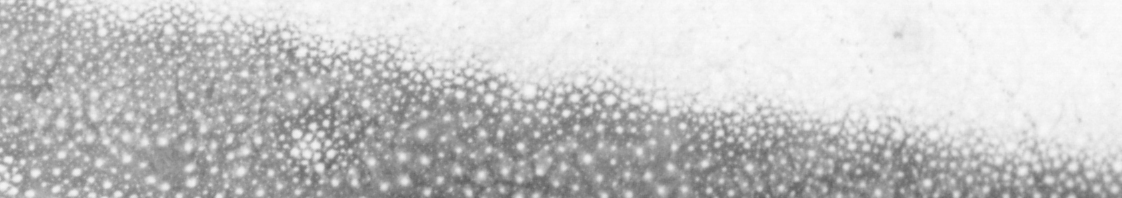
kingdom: Animalia
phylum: Chordata
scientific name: Chordata
